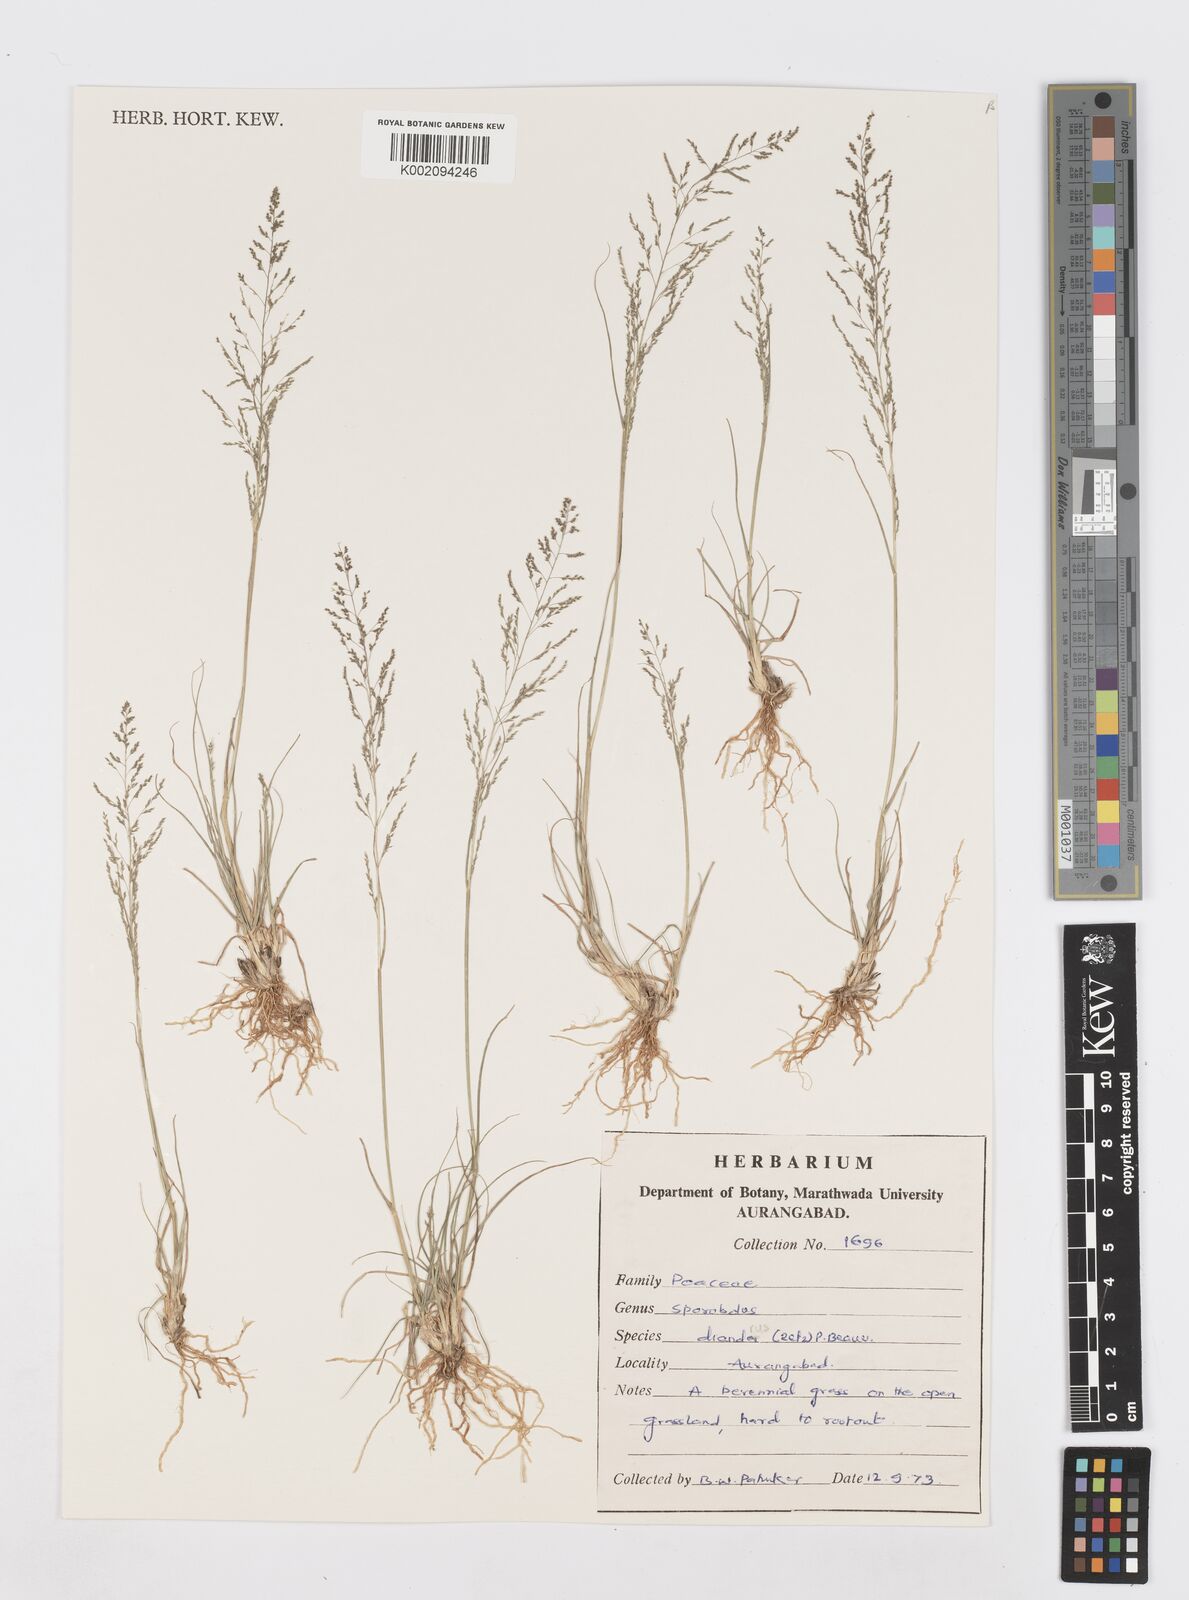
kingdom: Plantae
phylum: Tracheophyta
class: Liliopsida
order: Poales
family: Poaceae
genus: Sporobolus
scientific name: Sporobolus
